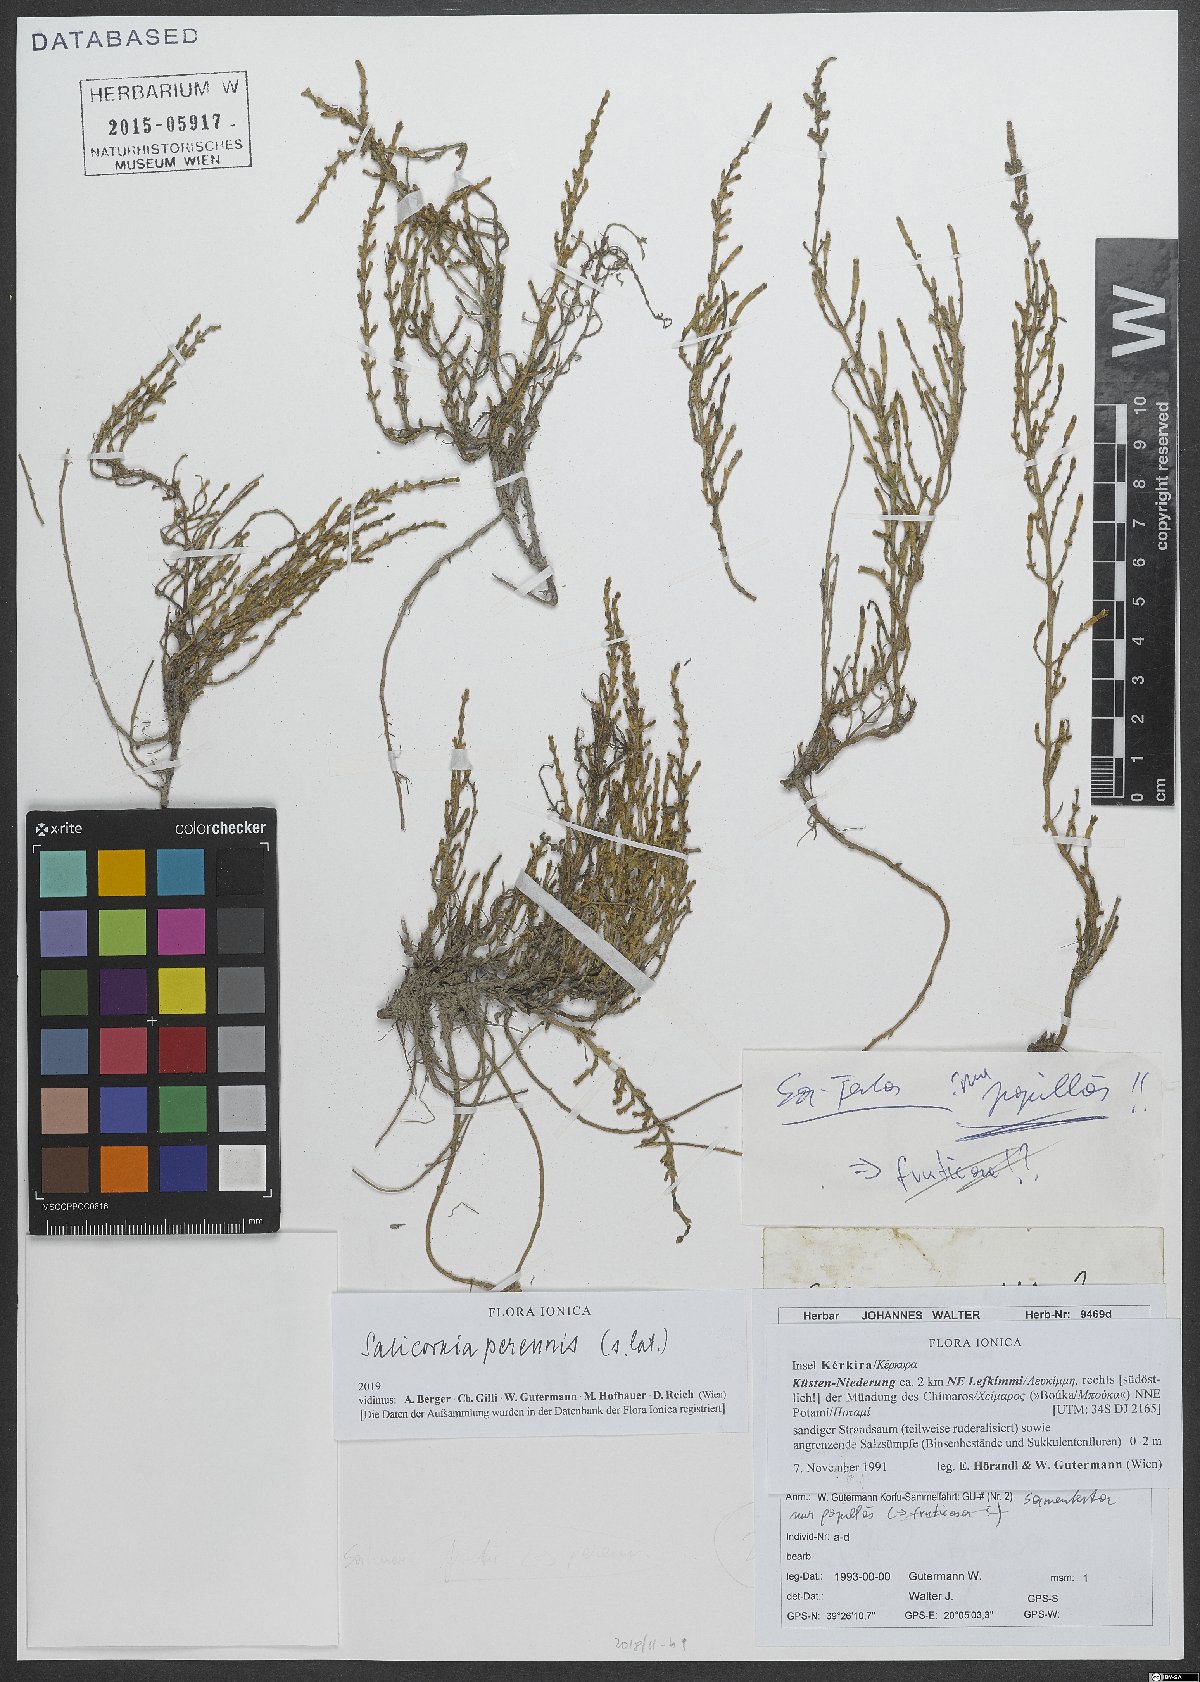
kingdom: Plantae
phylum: Tracheophyta
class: Magnoliopsida
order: Caryophyllales
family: Amaranthaceae
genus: Salicornia
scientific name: Salicornia perennis
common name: Chicken claws
